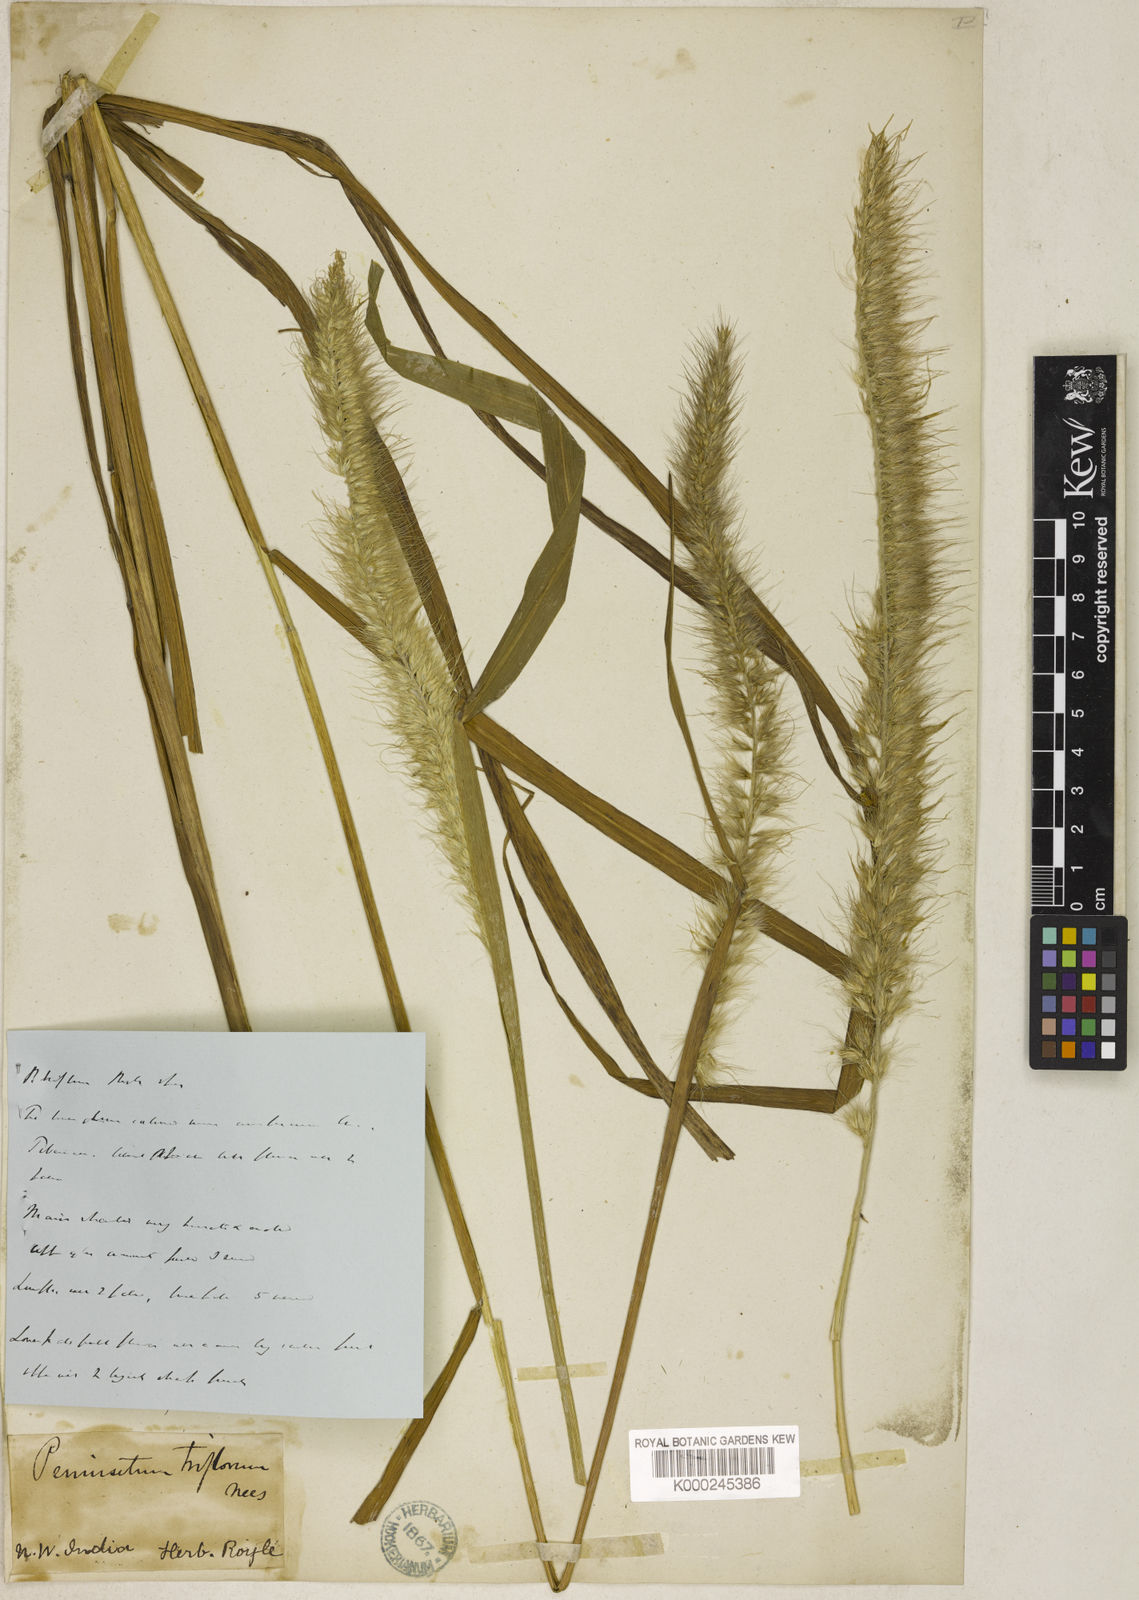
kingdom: Plantae
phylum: Tracheophyta
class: Liliopsida
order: Poales
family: Poaceae
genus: Cenchrus
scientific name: Cenchrus orientalis
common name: Oriental fountain grass
